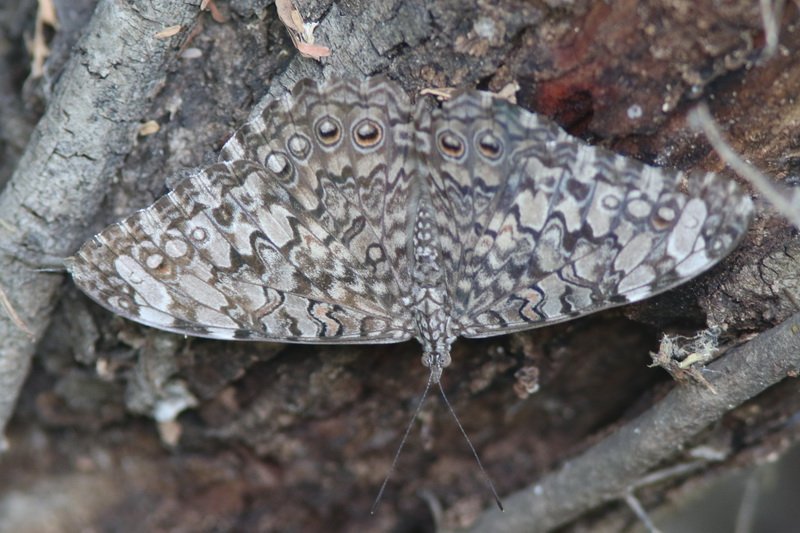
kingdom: Animalia
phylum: Arthropoda
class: Insecta
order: Lepidoptera
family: Nymphalidae
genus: Hamadryas
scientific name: Hamadryas februa
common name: Gray Cracker
